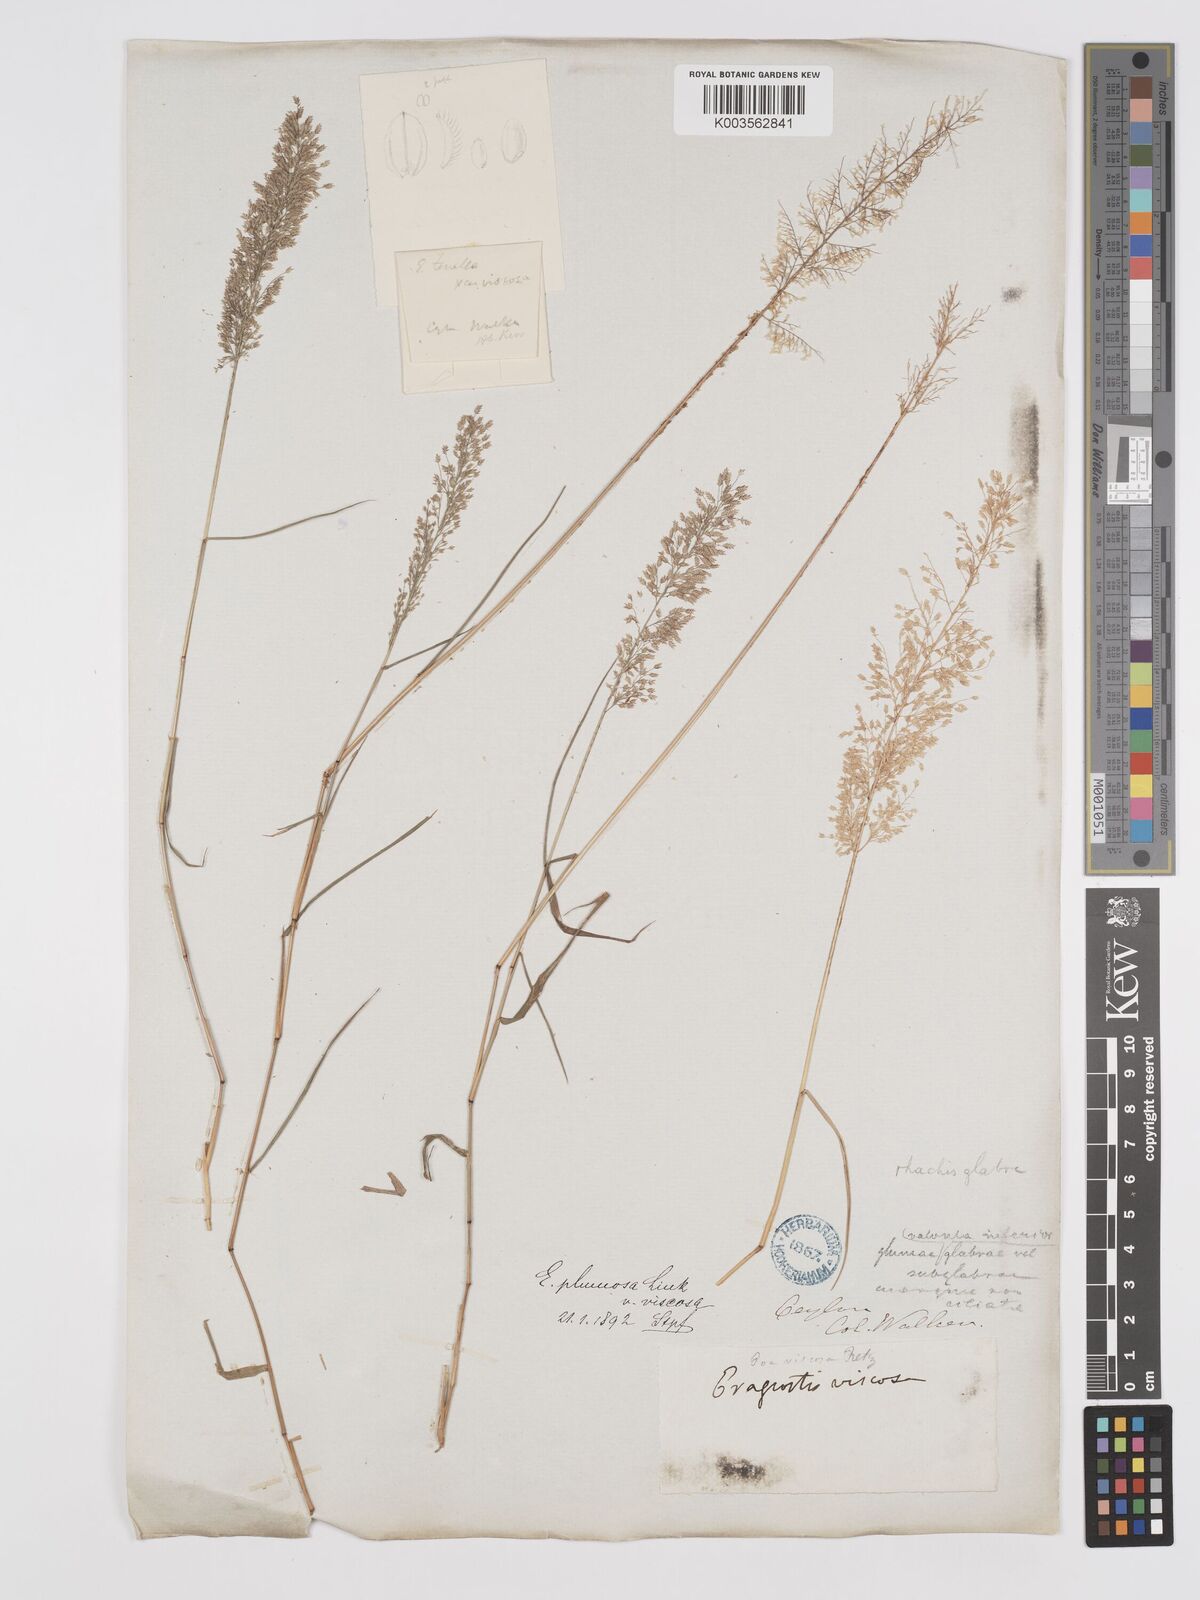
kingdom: Plantae
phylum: Tracheophyta
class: Liliopsida
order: Poales
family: Poaceae
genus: Eragrostis
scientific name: Eragrostis viscosa
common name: Sticky love grass
